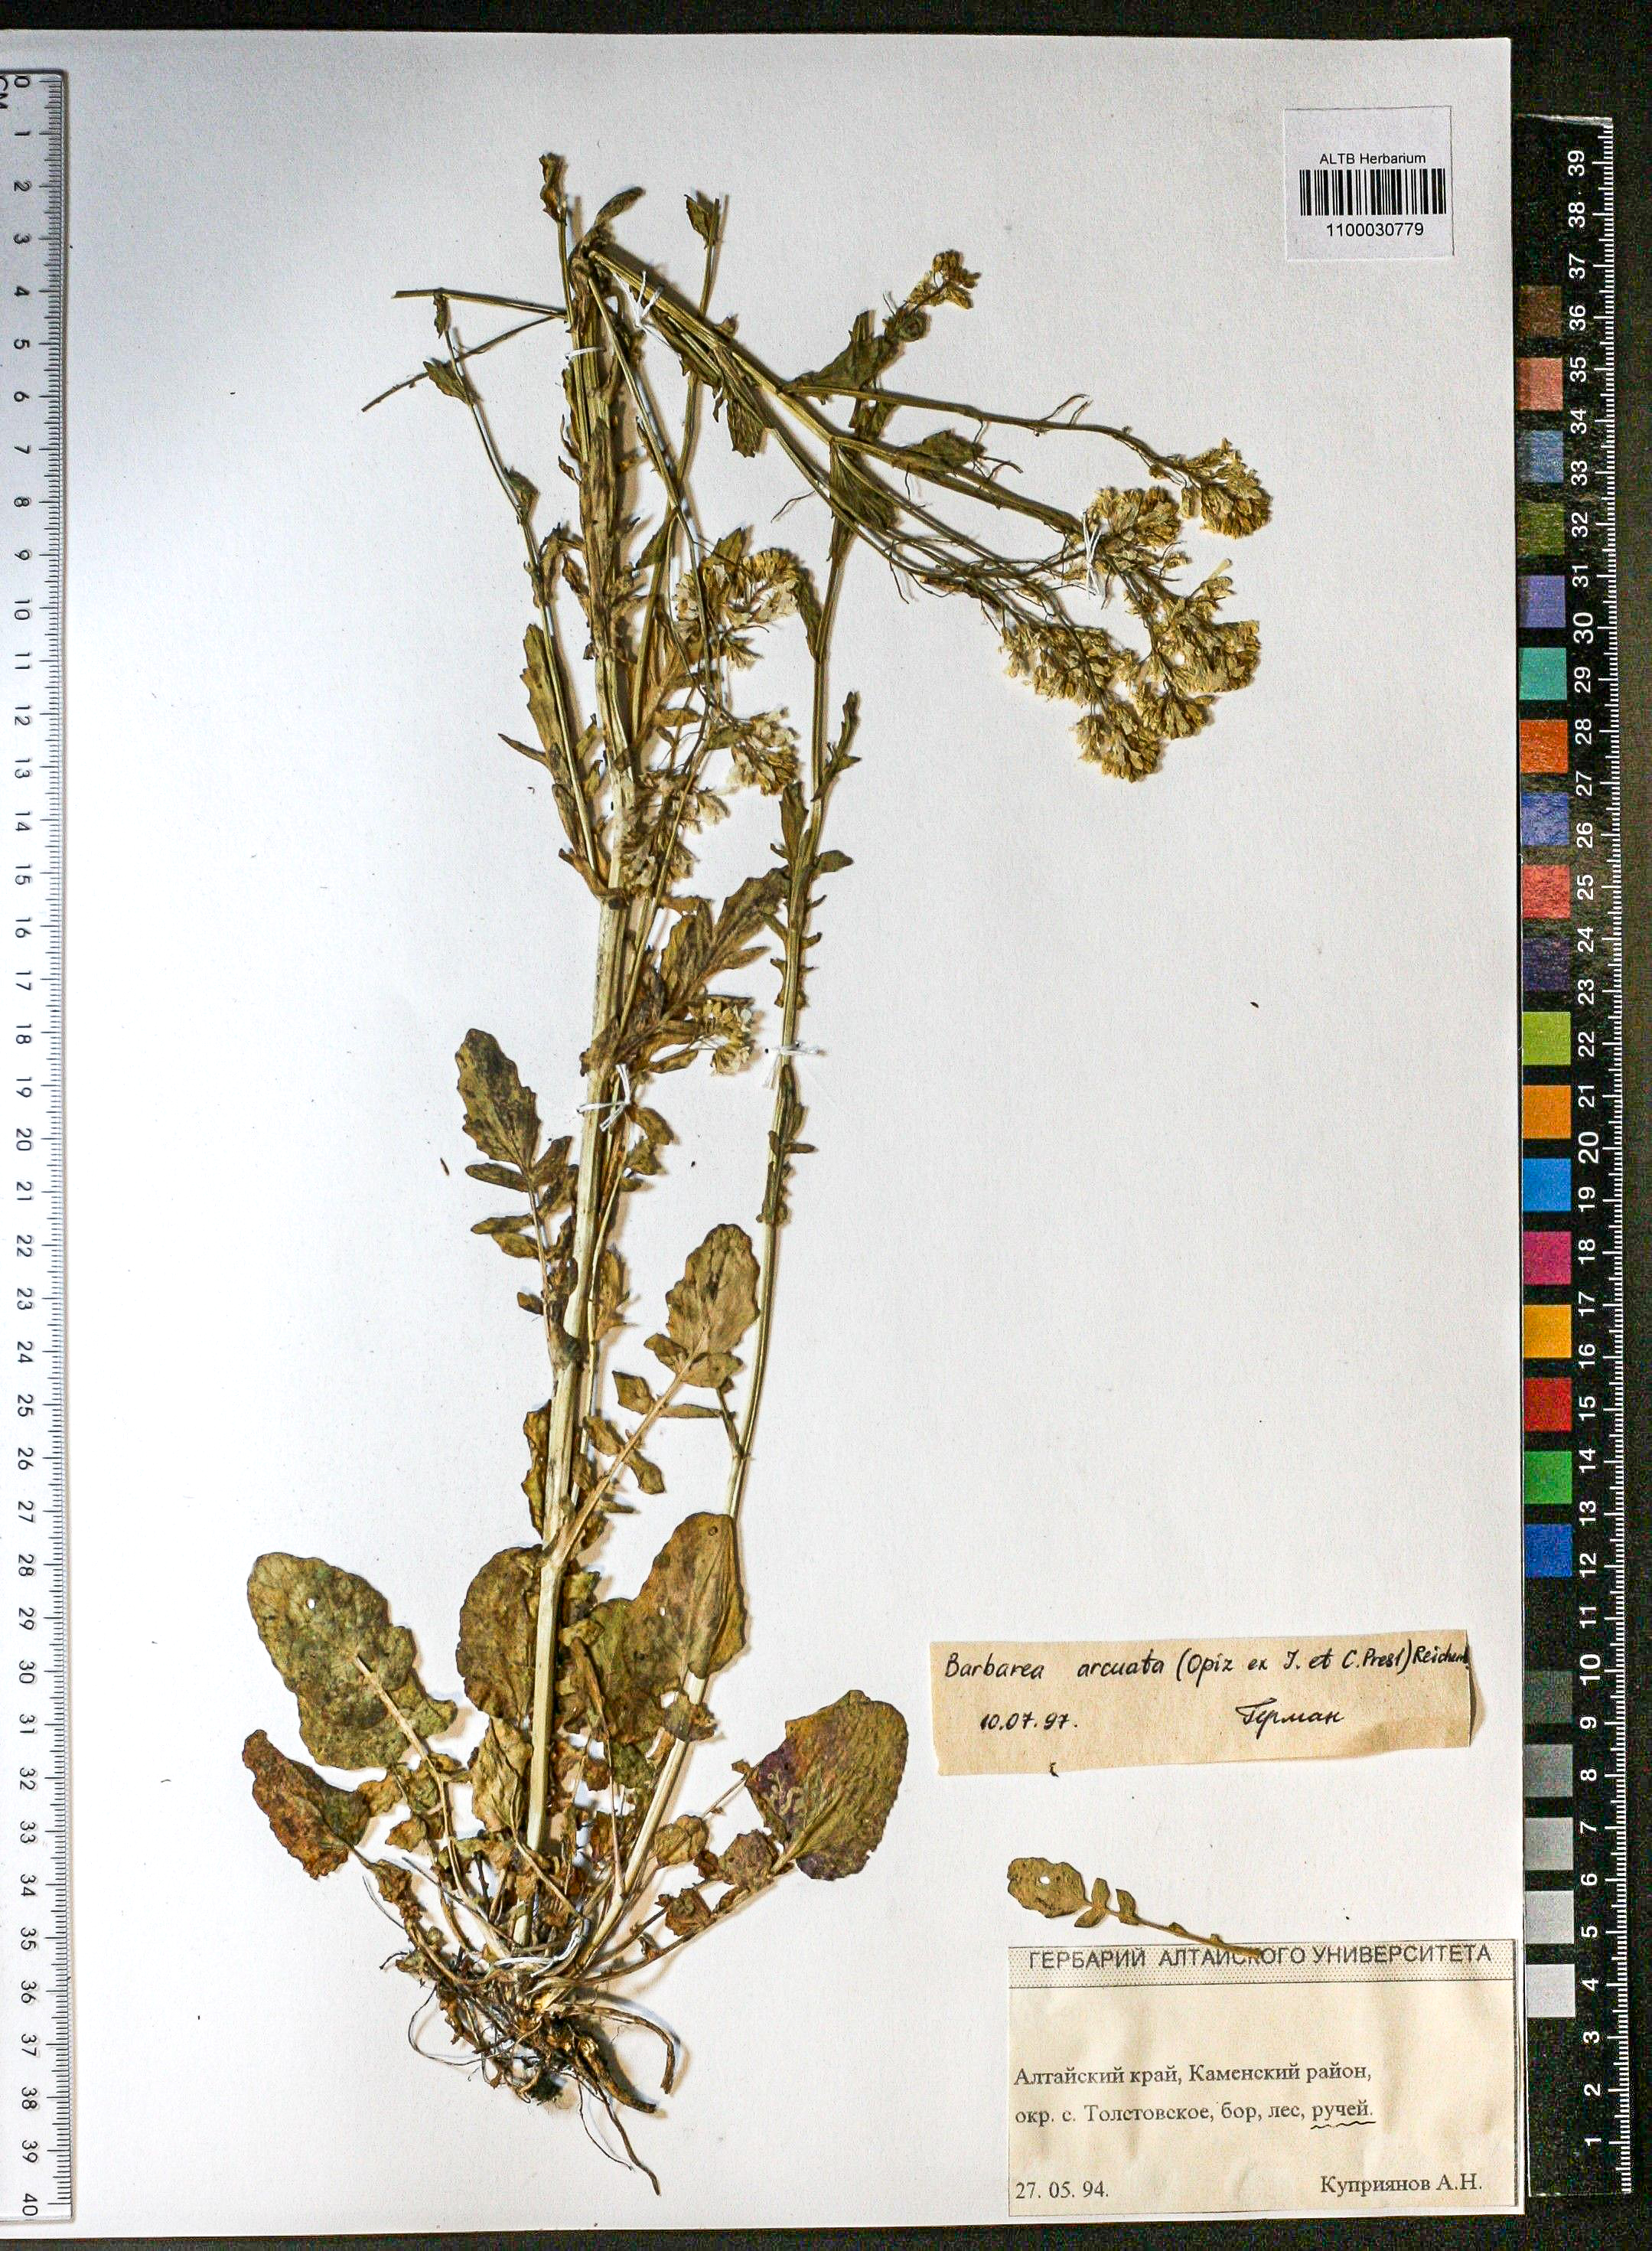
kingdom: Plantae
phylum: Tracheophyta
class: Magnoliopsida
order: Brassicales
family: Brassicaceae
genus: Barbarea
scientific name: Barbarea vulgaris
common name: Cressy-greens
